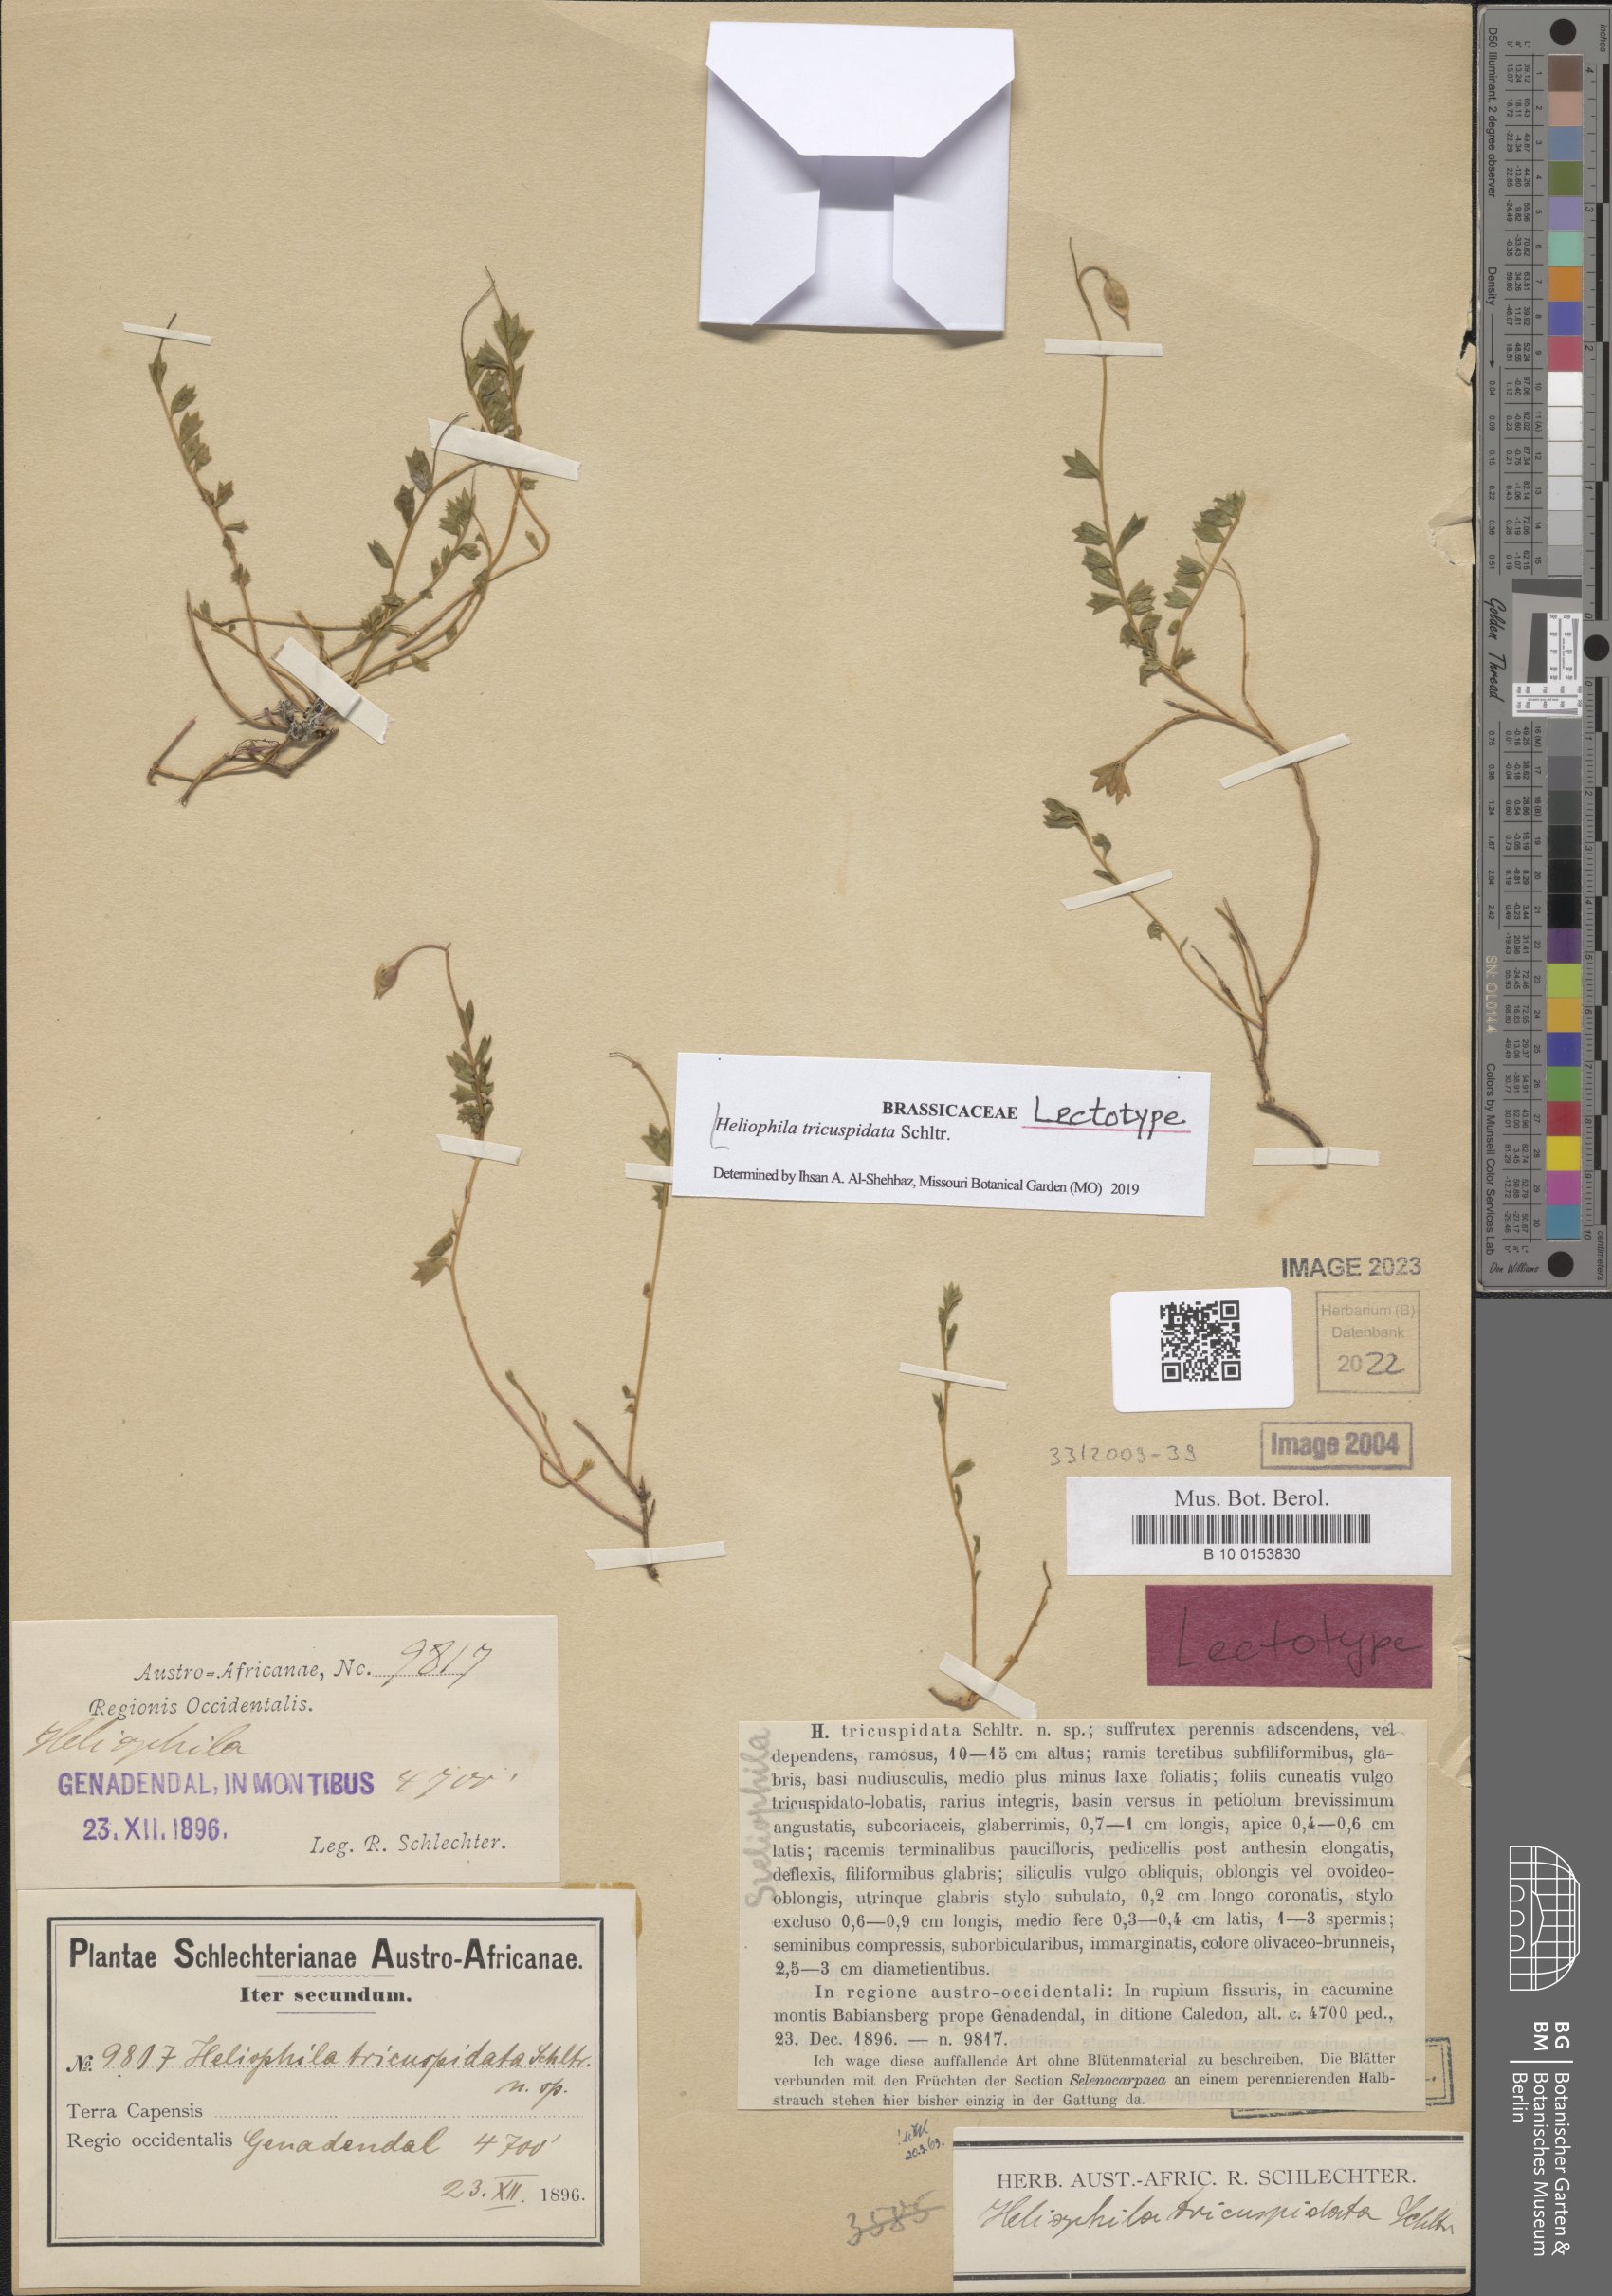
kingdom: Plantae
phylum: Tracheophyta
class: Magnoliopsida
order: Brassicales
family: Brassicaceae
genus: Heliophila
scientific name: Heliophila tricuspidata
